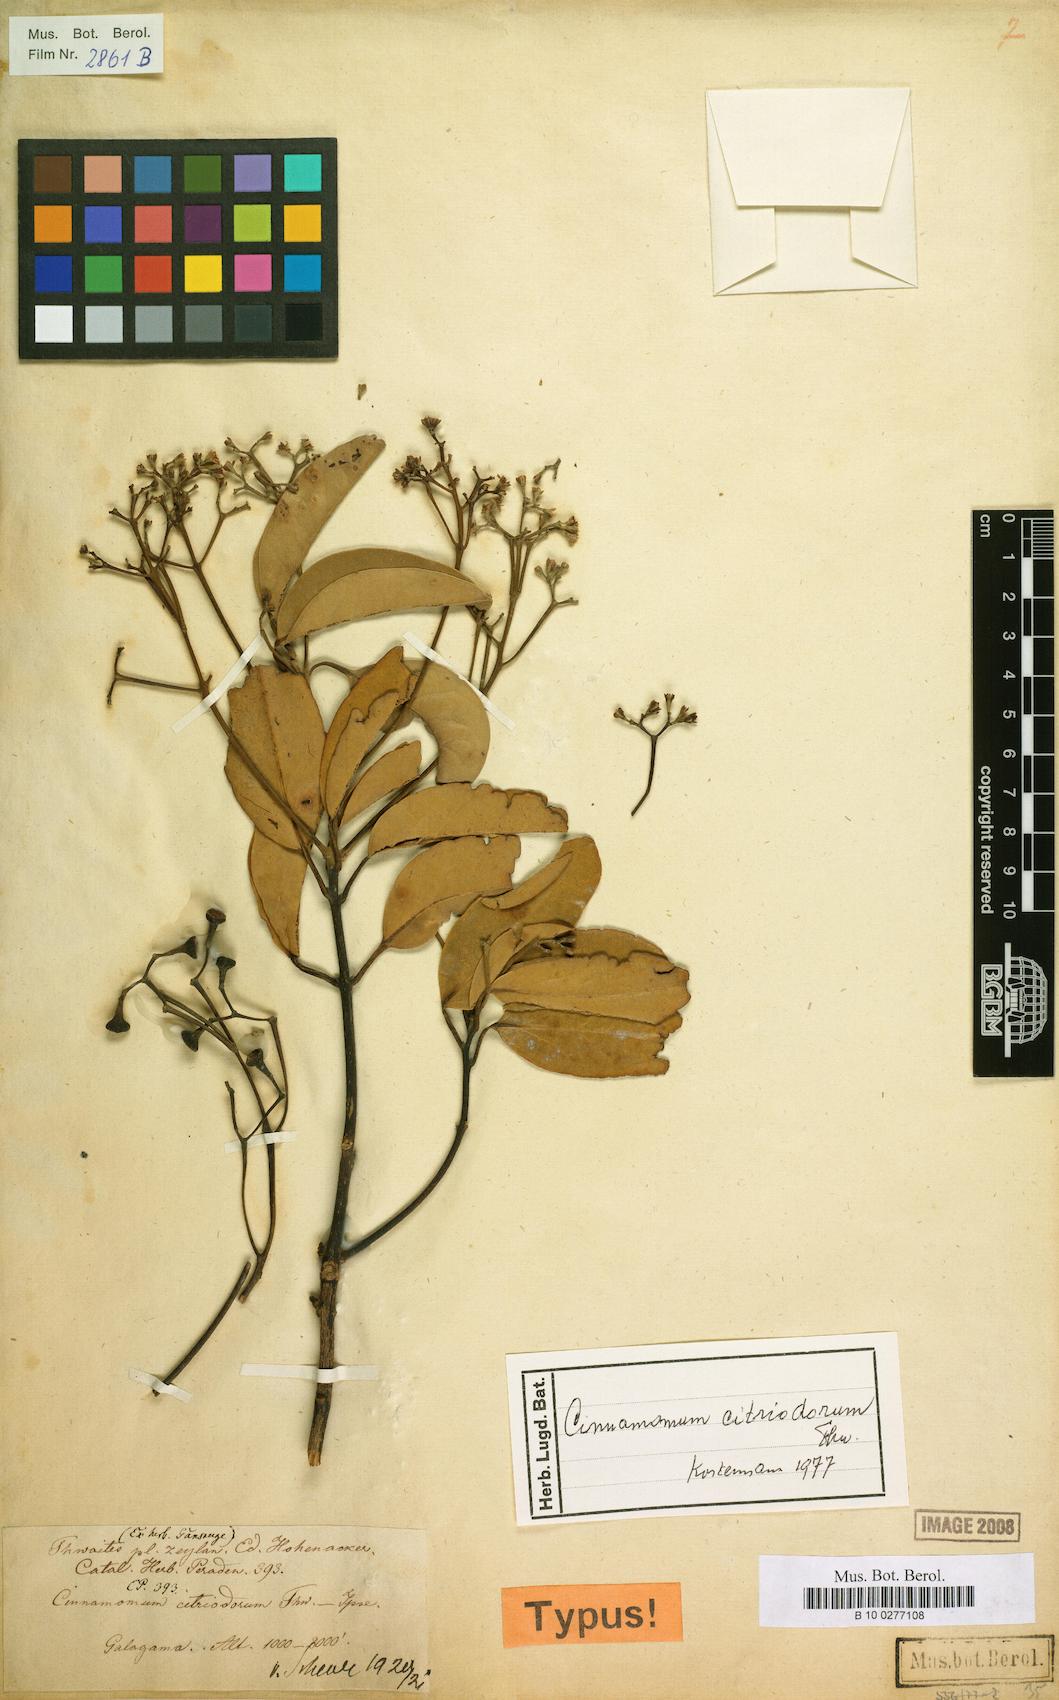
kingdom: Plantae
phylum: Tracheophyta
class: Magnoliopsida
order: Laurales
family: Lauraceae
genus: Cinnamomum
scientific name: Cinnamomum citriodorum
